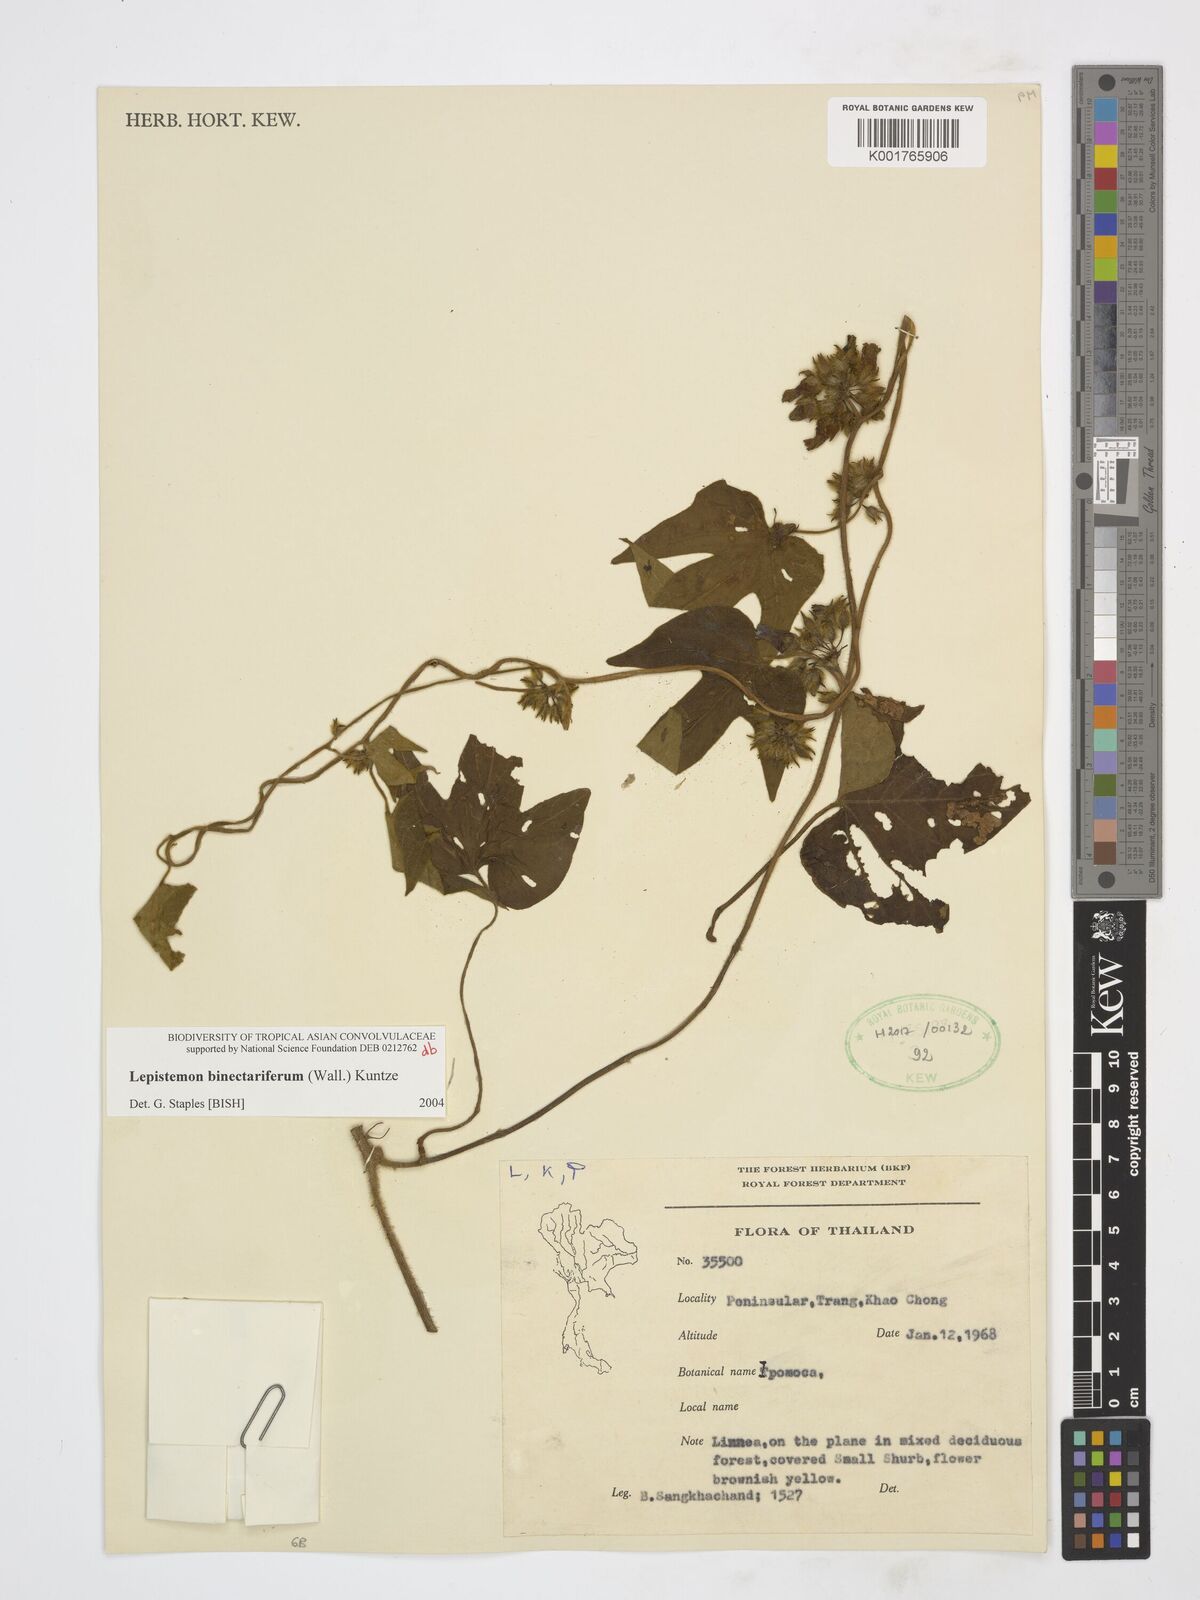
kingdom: Plantae
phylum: Tracheophyta
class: Magnoliopsida
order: Solanales
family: Convolvulaceae
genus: Lepistemon
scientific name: Lepistemon
